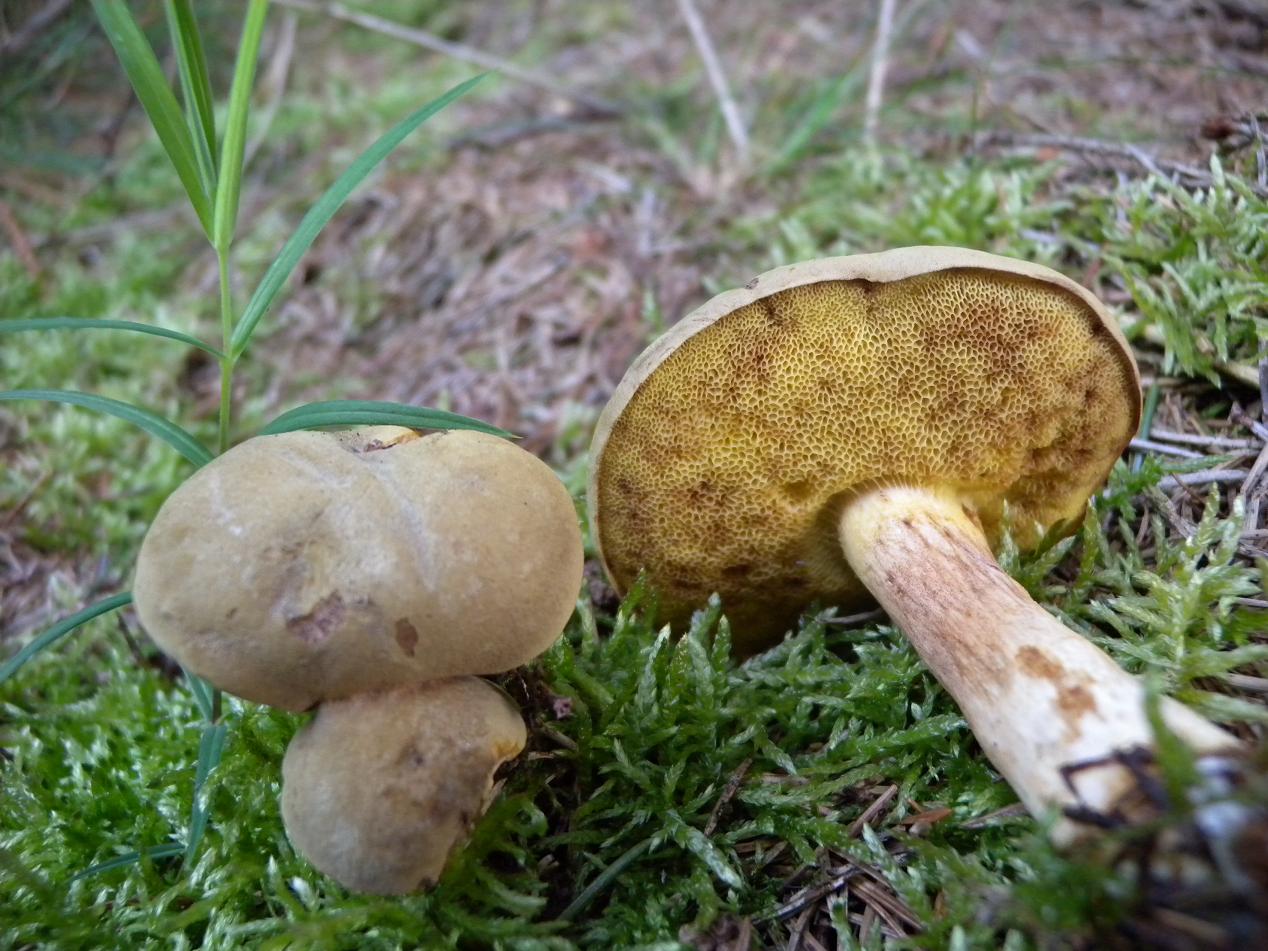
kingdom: Fungi
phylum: Basidiomycota
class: Agaricomycetes
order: Boletales
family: Boletaceae
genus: Xerocomus
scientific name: Xerocomus ferrugineus
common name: vaskeskinds-rørhat
